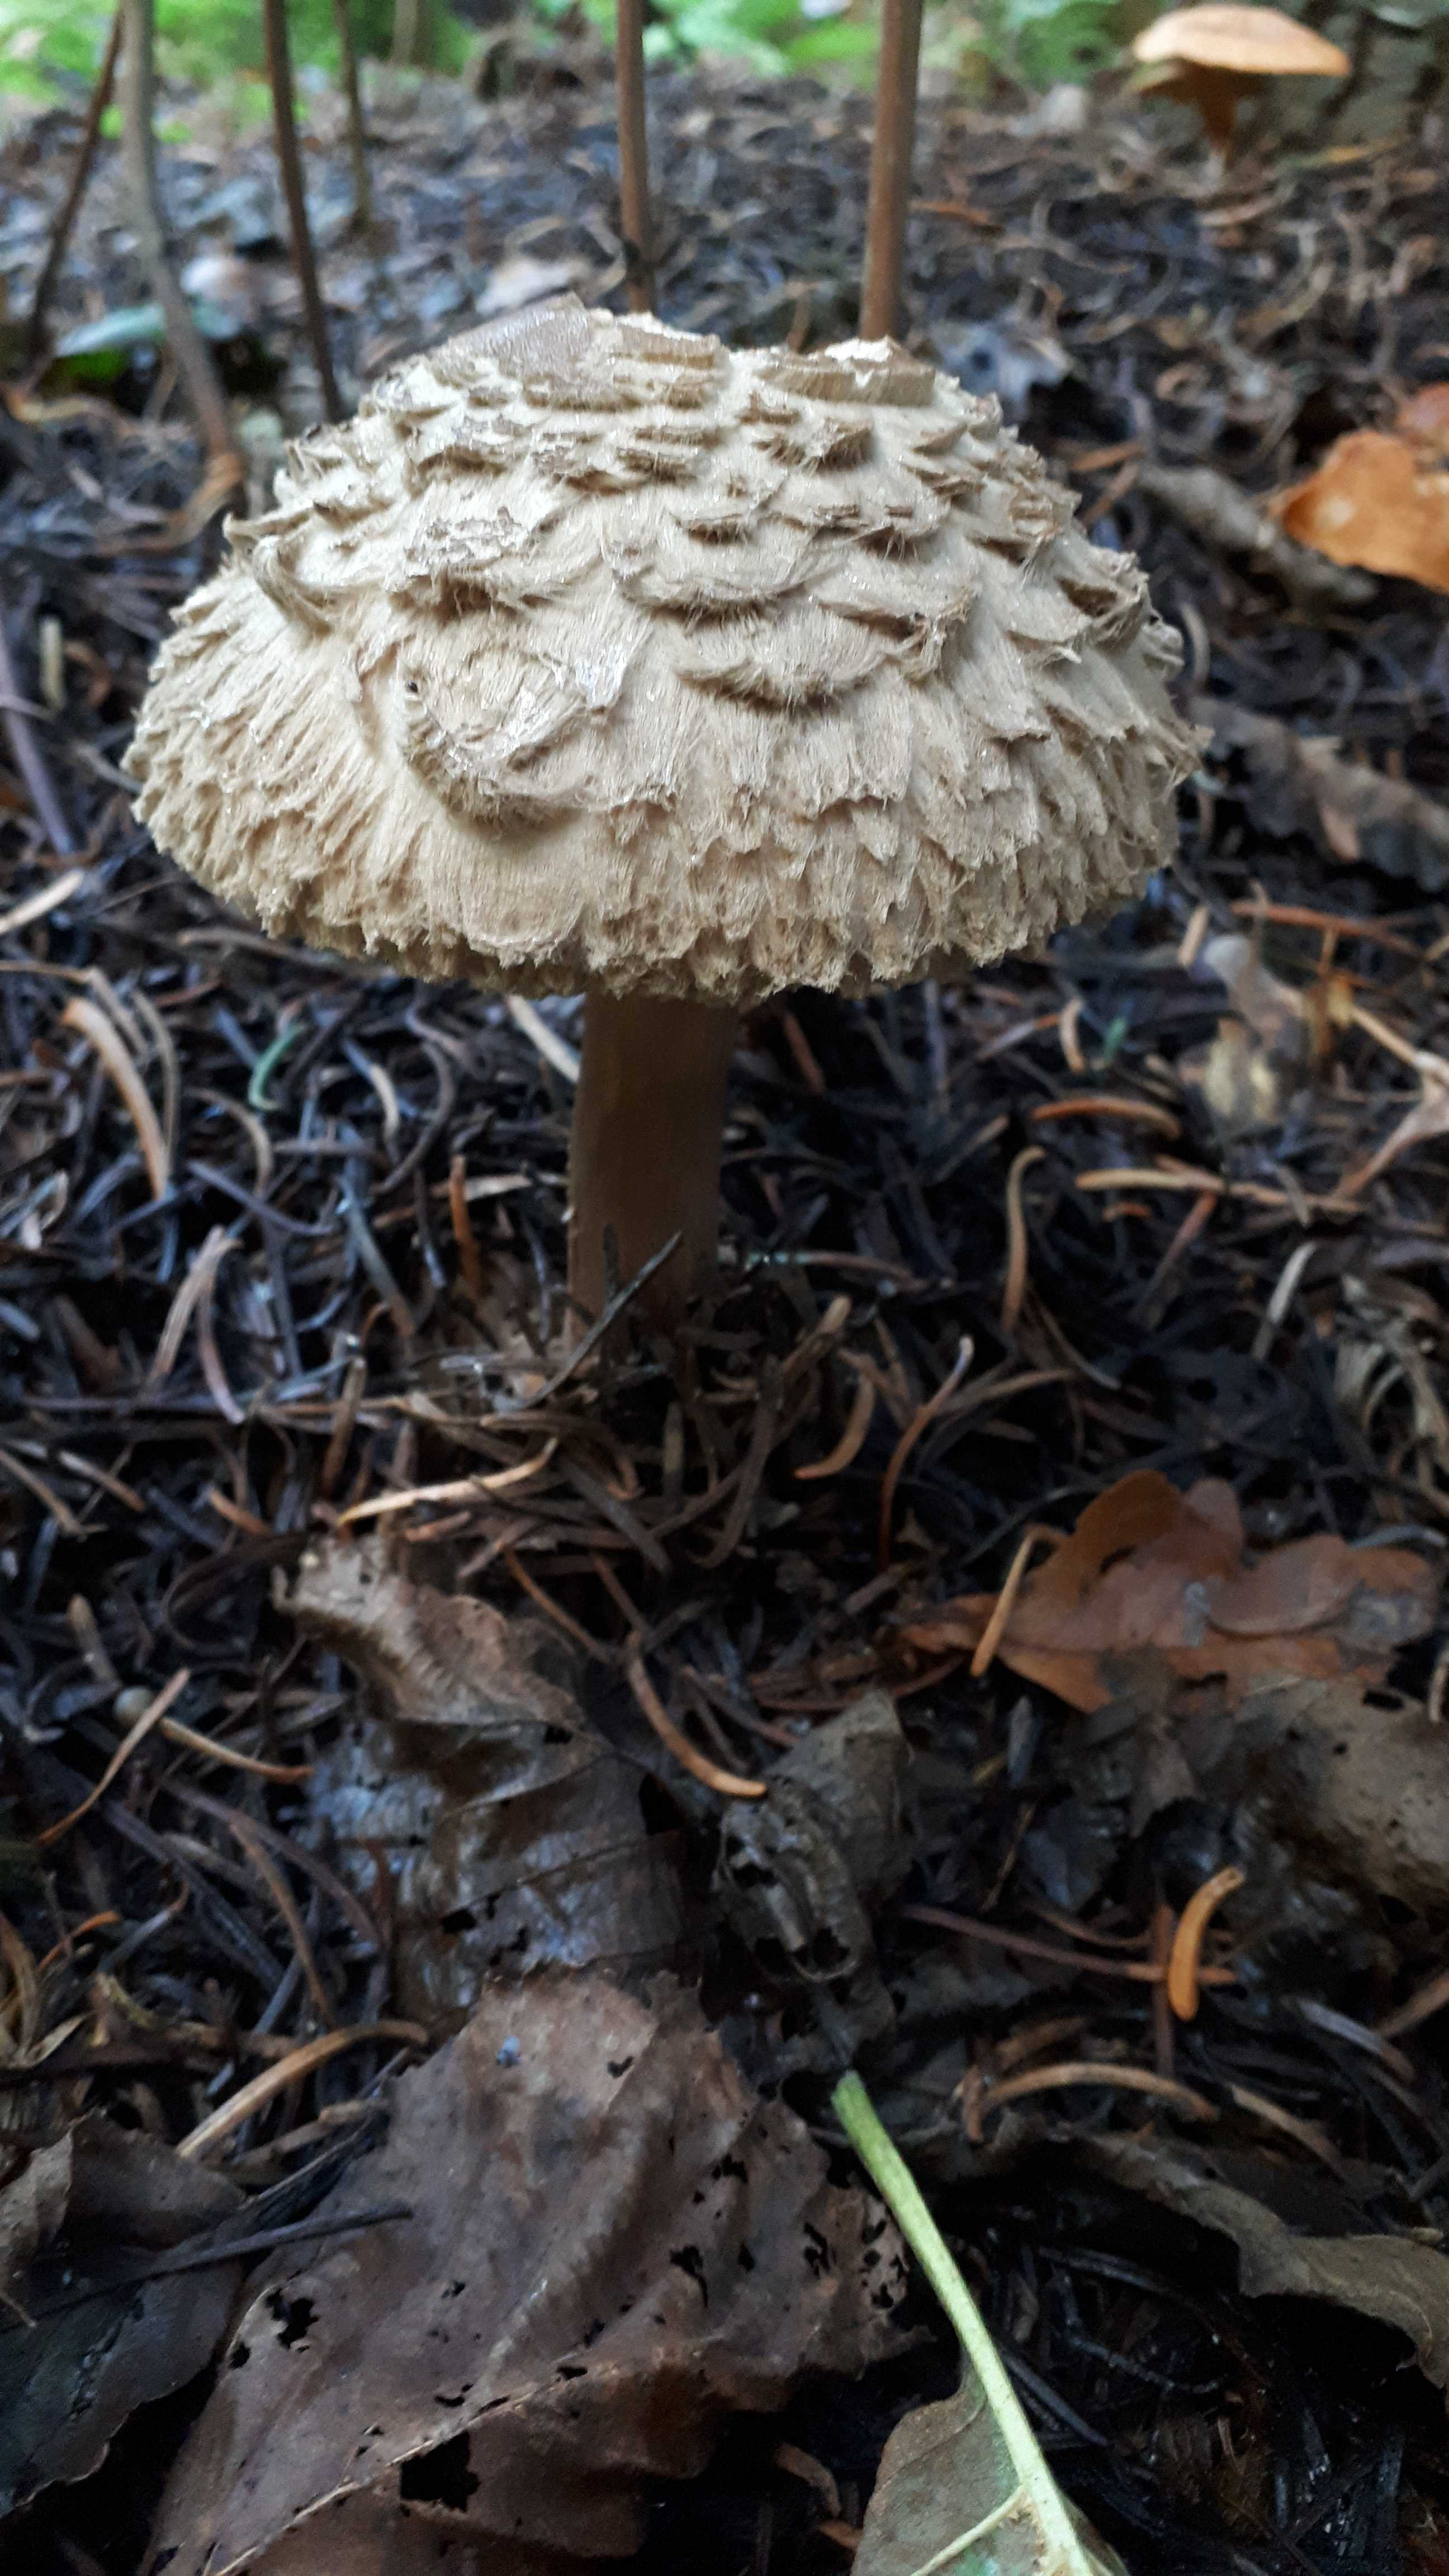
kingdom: Fungi
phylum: Basidiomycota
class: Agaricomycetes
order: Agaricales
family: Agaricaceae
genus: Chlorophyllum
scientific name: Chlorophyllum olivieri
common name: almindelig rabarberhat
